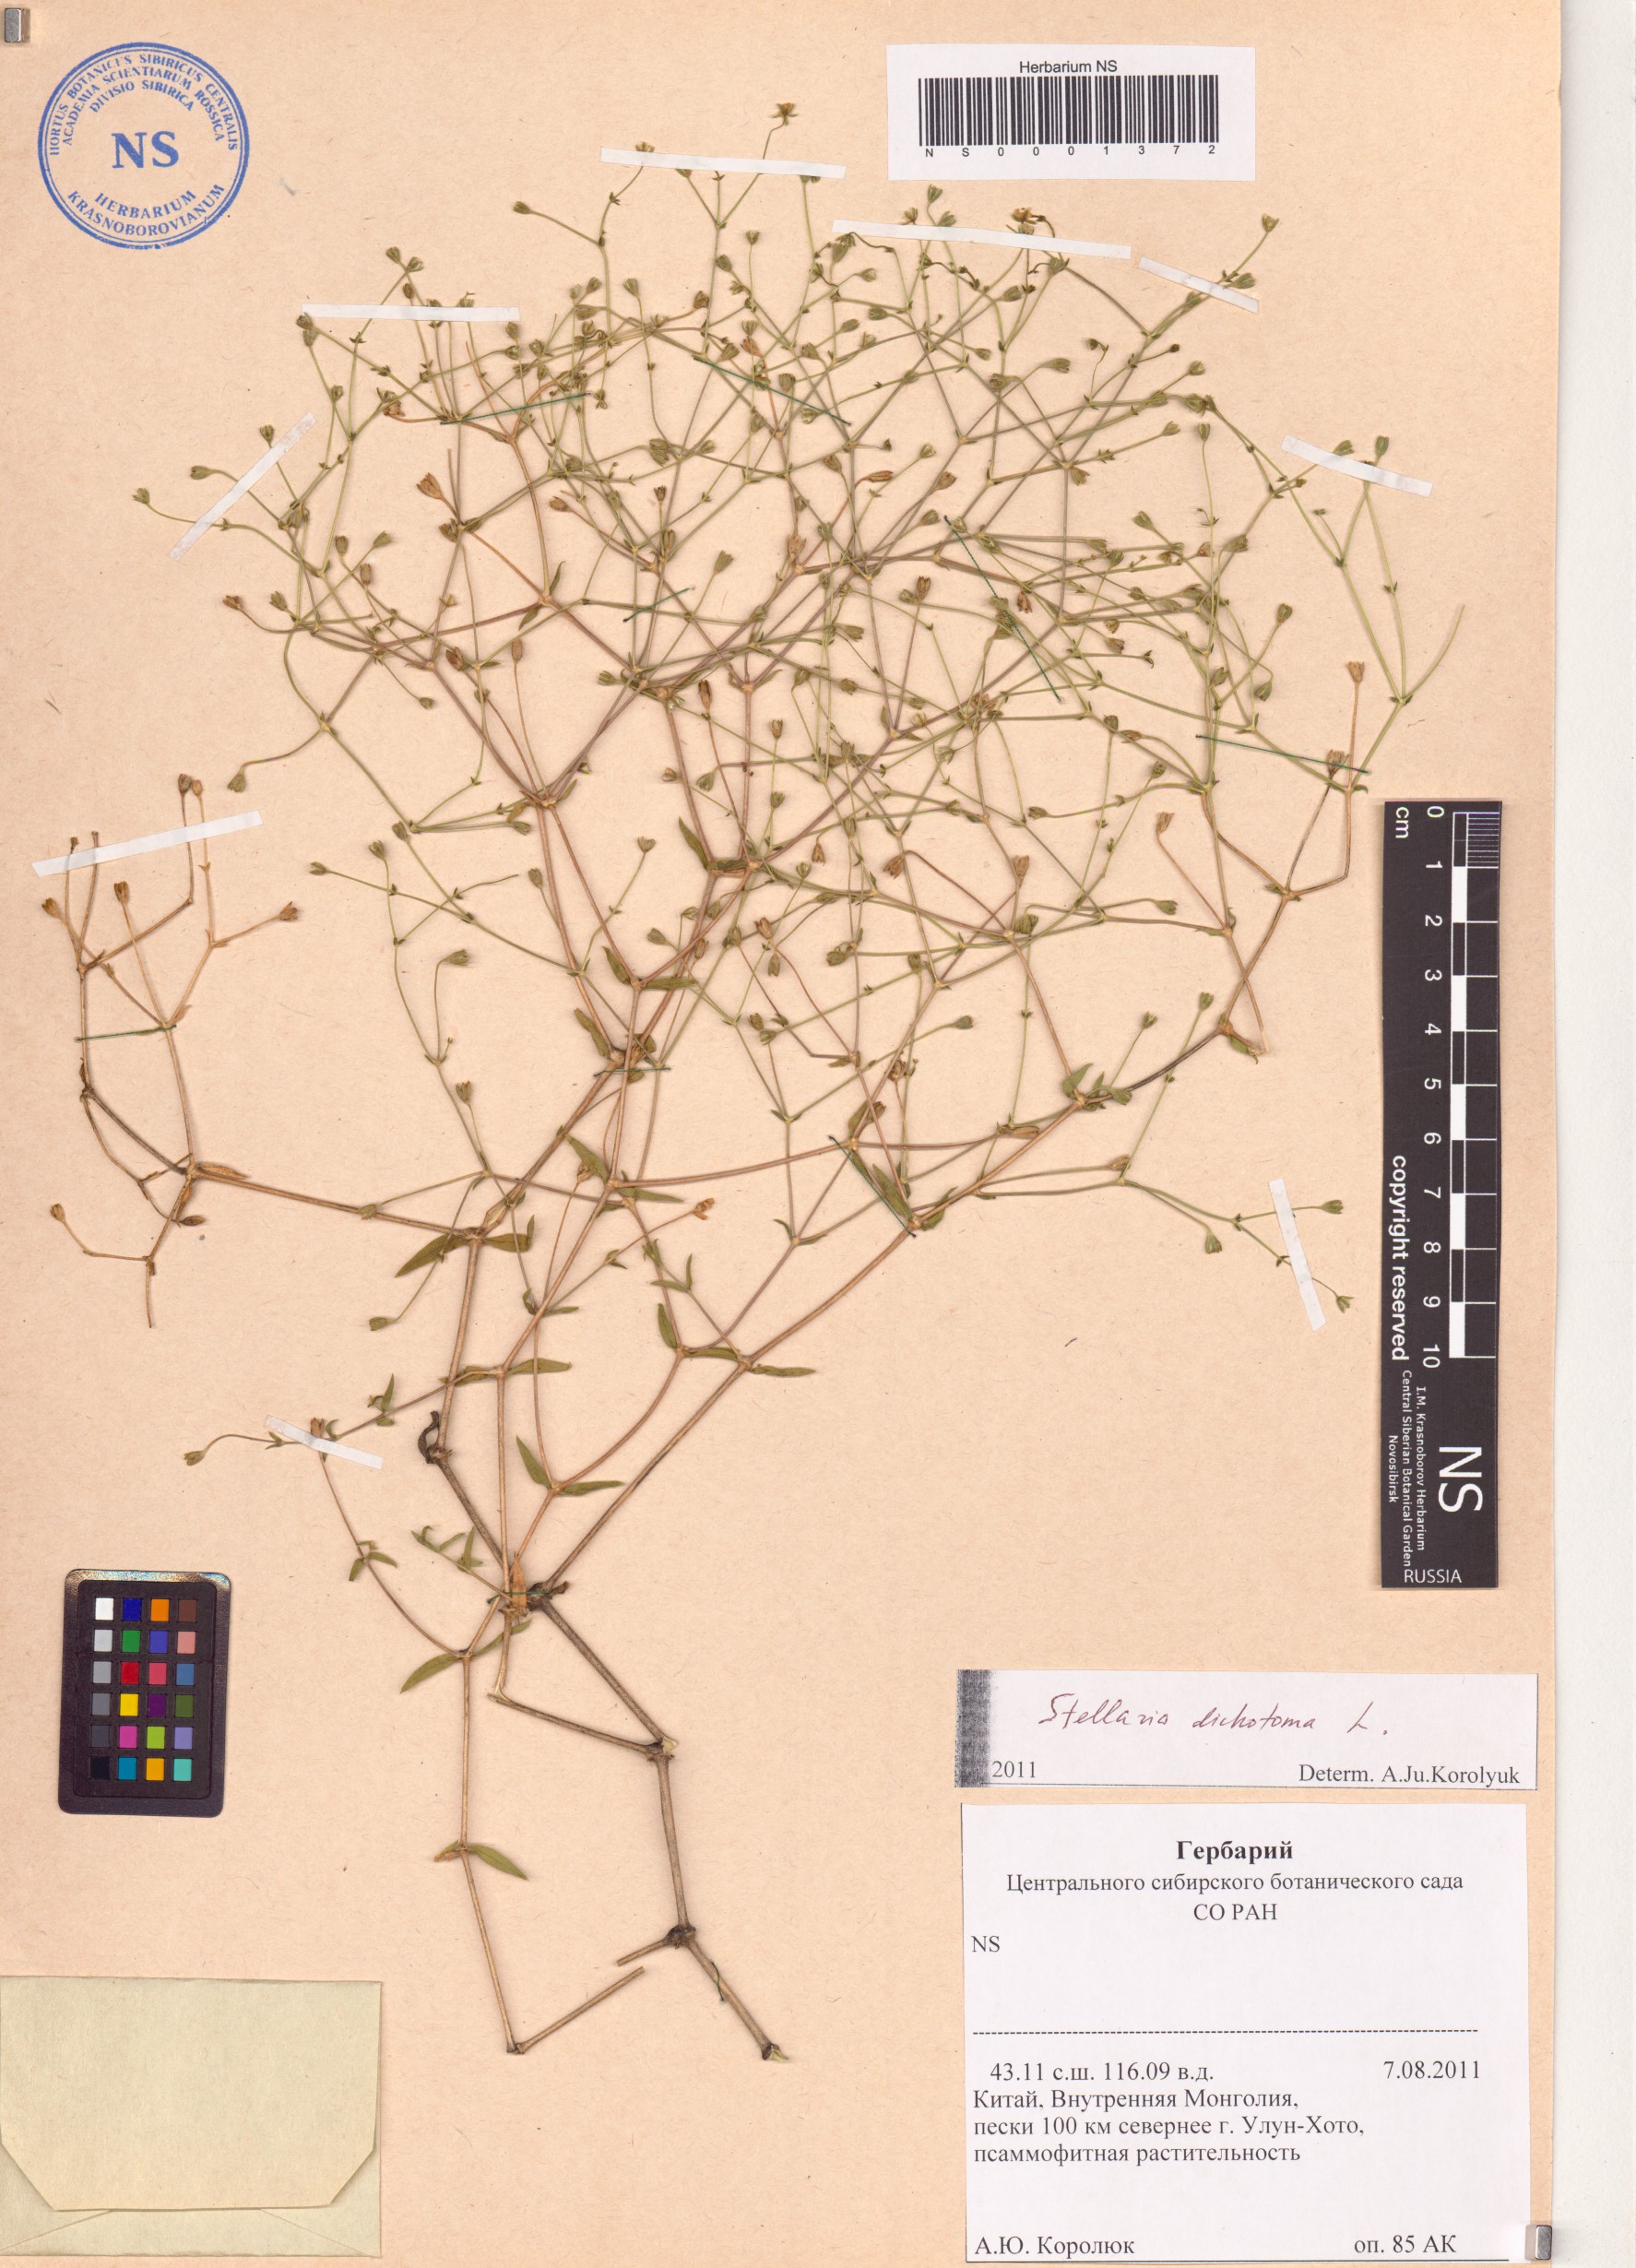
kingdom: Plantae
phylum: Tracheophyta
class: Magnoliopsida
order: Caryophyllales
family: Caryophyllaceae
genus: Mesostemma
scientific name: Mesostemma dichotomum
